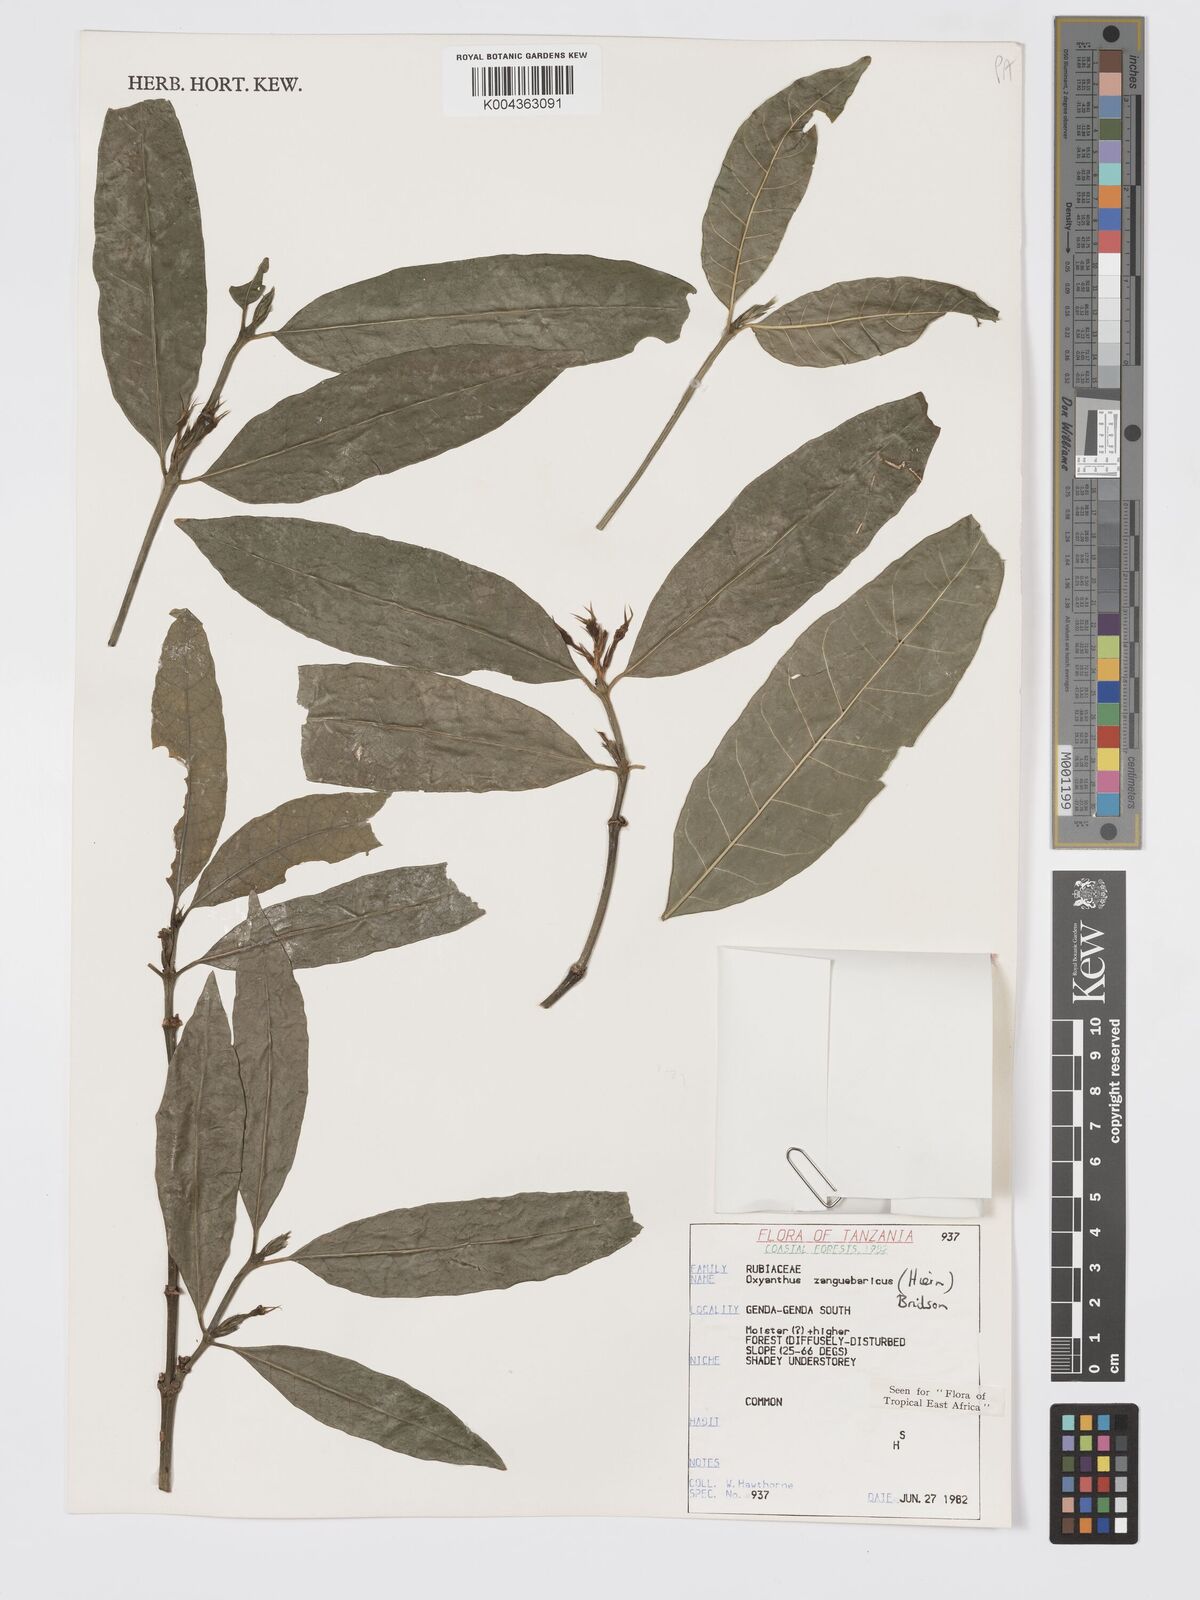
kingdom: Plantae
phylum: Tracheophyta
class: Magnoliopsida
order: Gentianales
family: Rubiaceae
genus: Oxyanthus
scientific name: Oxyanthus zanguebaricus
